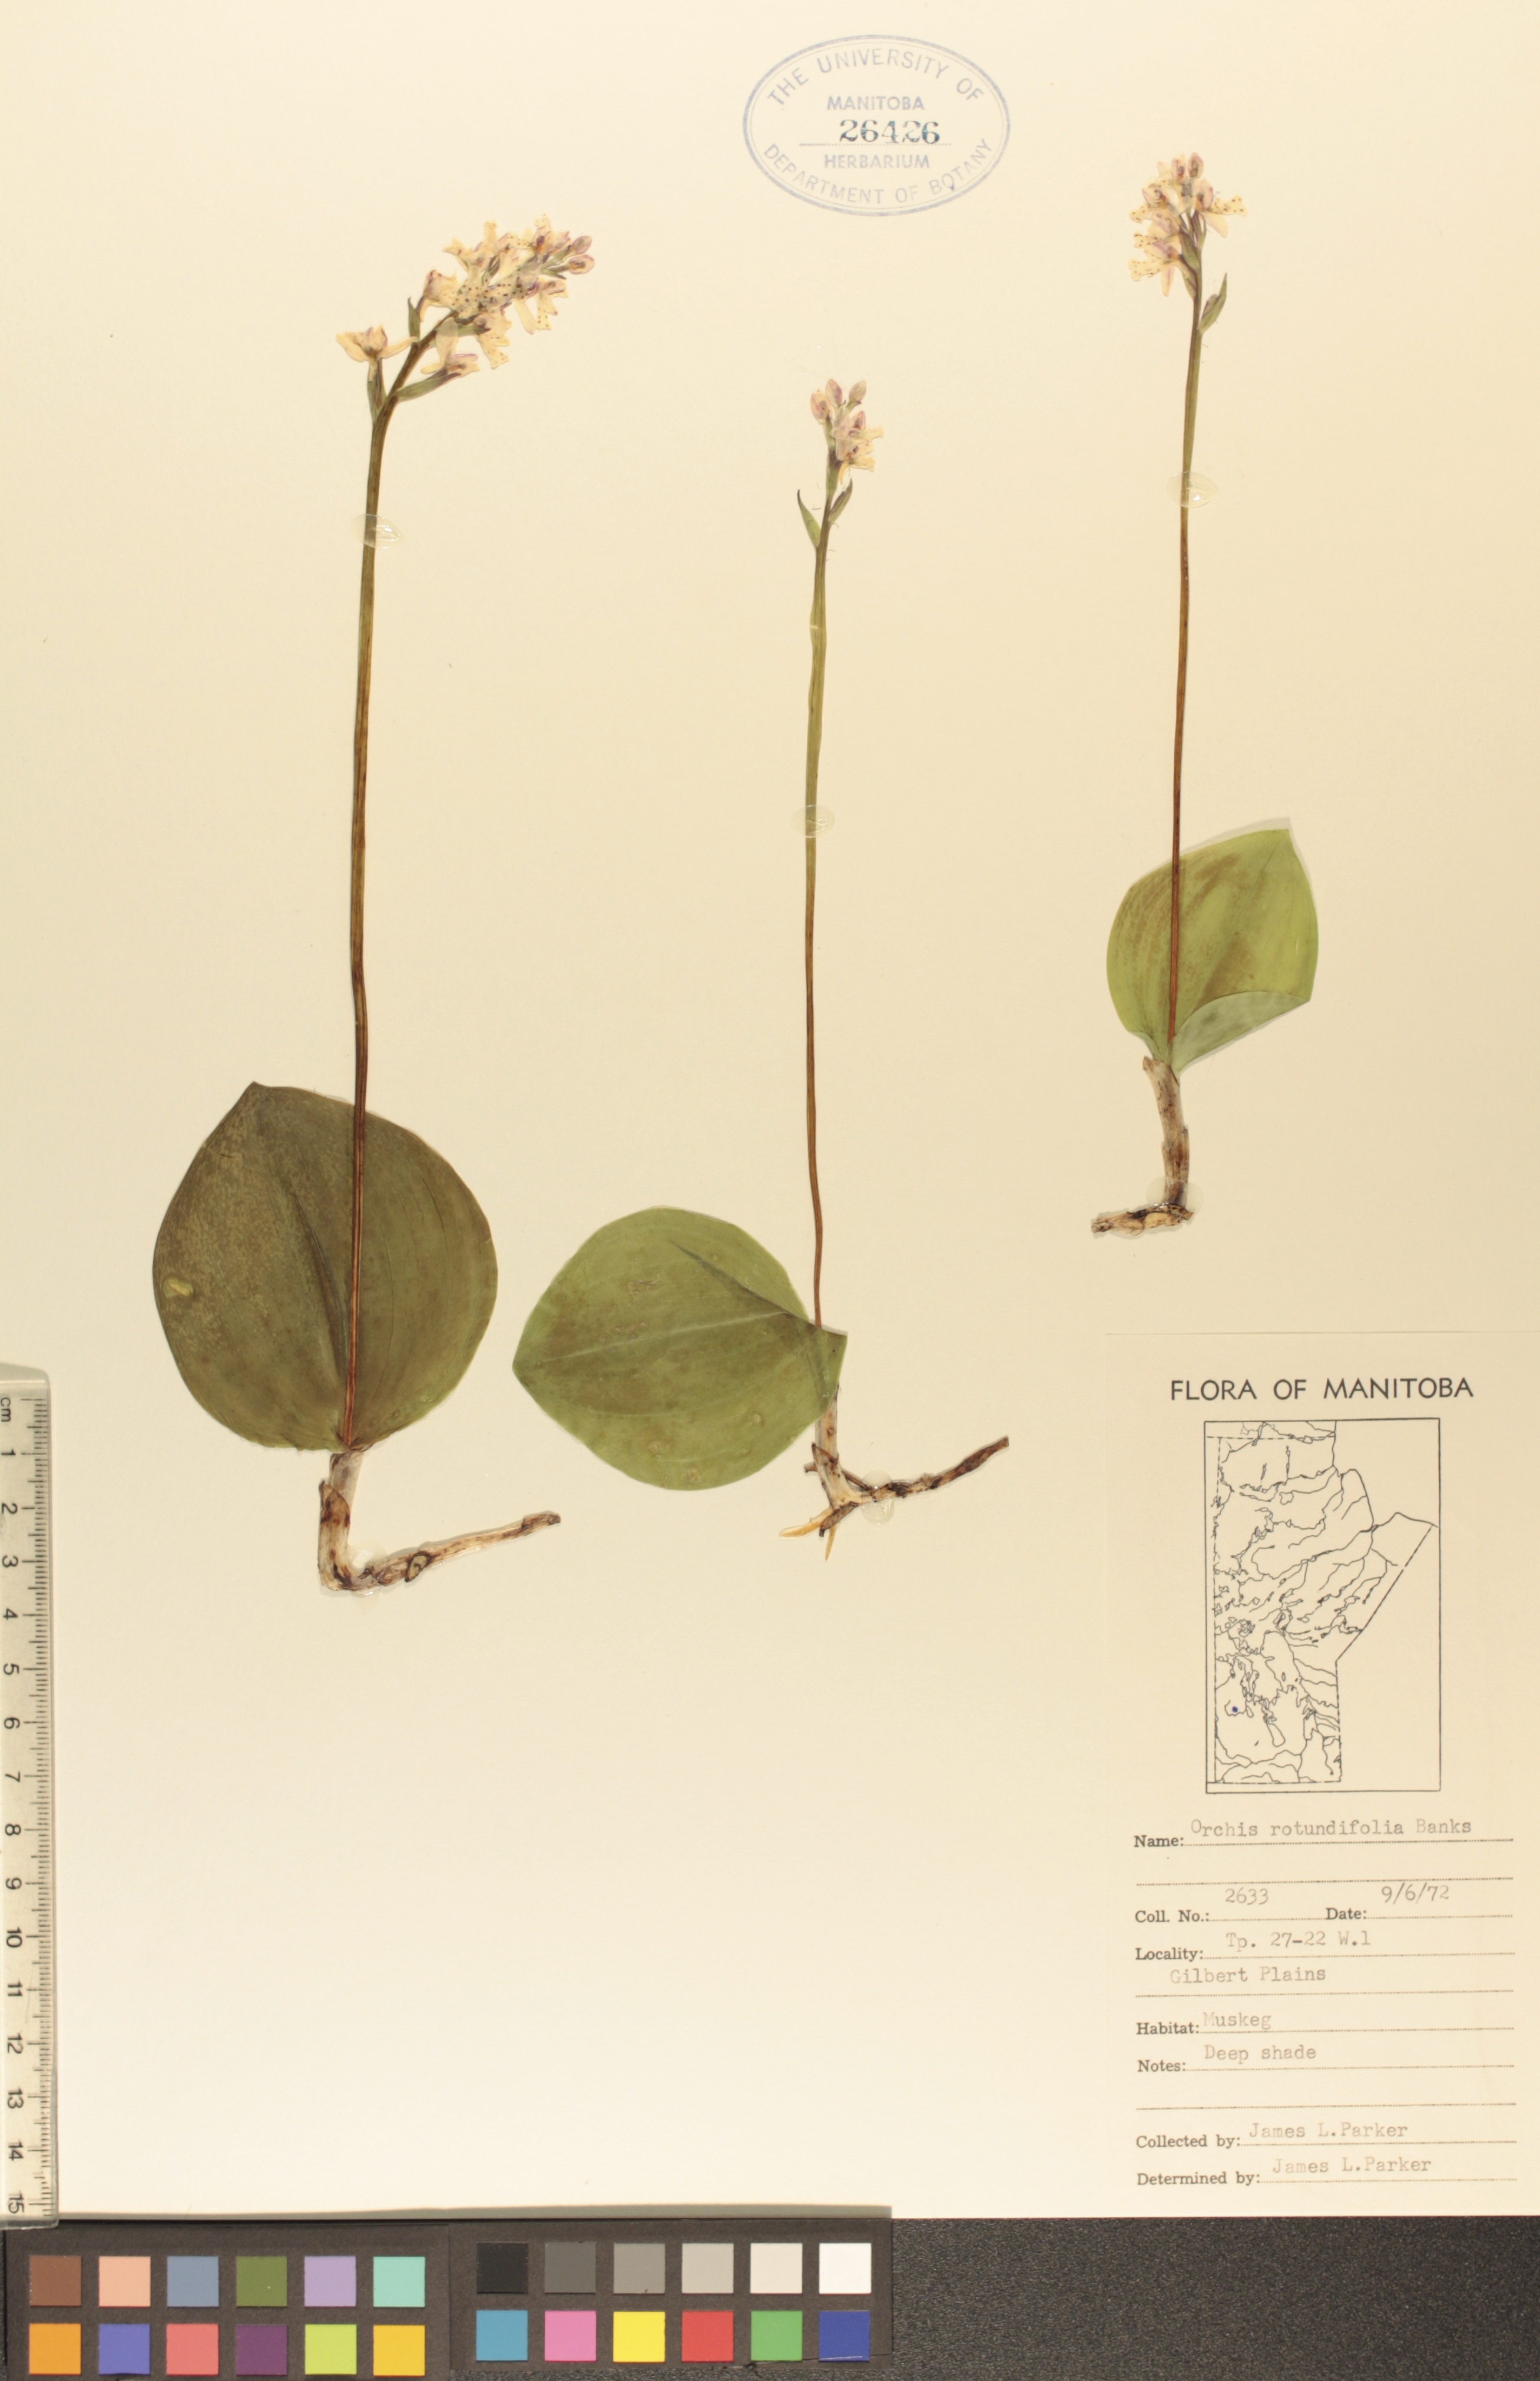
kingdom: Plantae
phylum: Tracheophyta
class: Liliopsida
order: Asparagales
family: Orchidaceae
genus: Galearis
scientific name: Galearis rotundifolia
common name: One-leaved orchis
